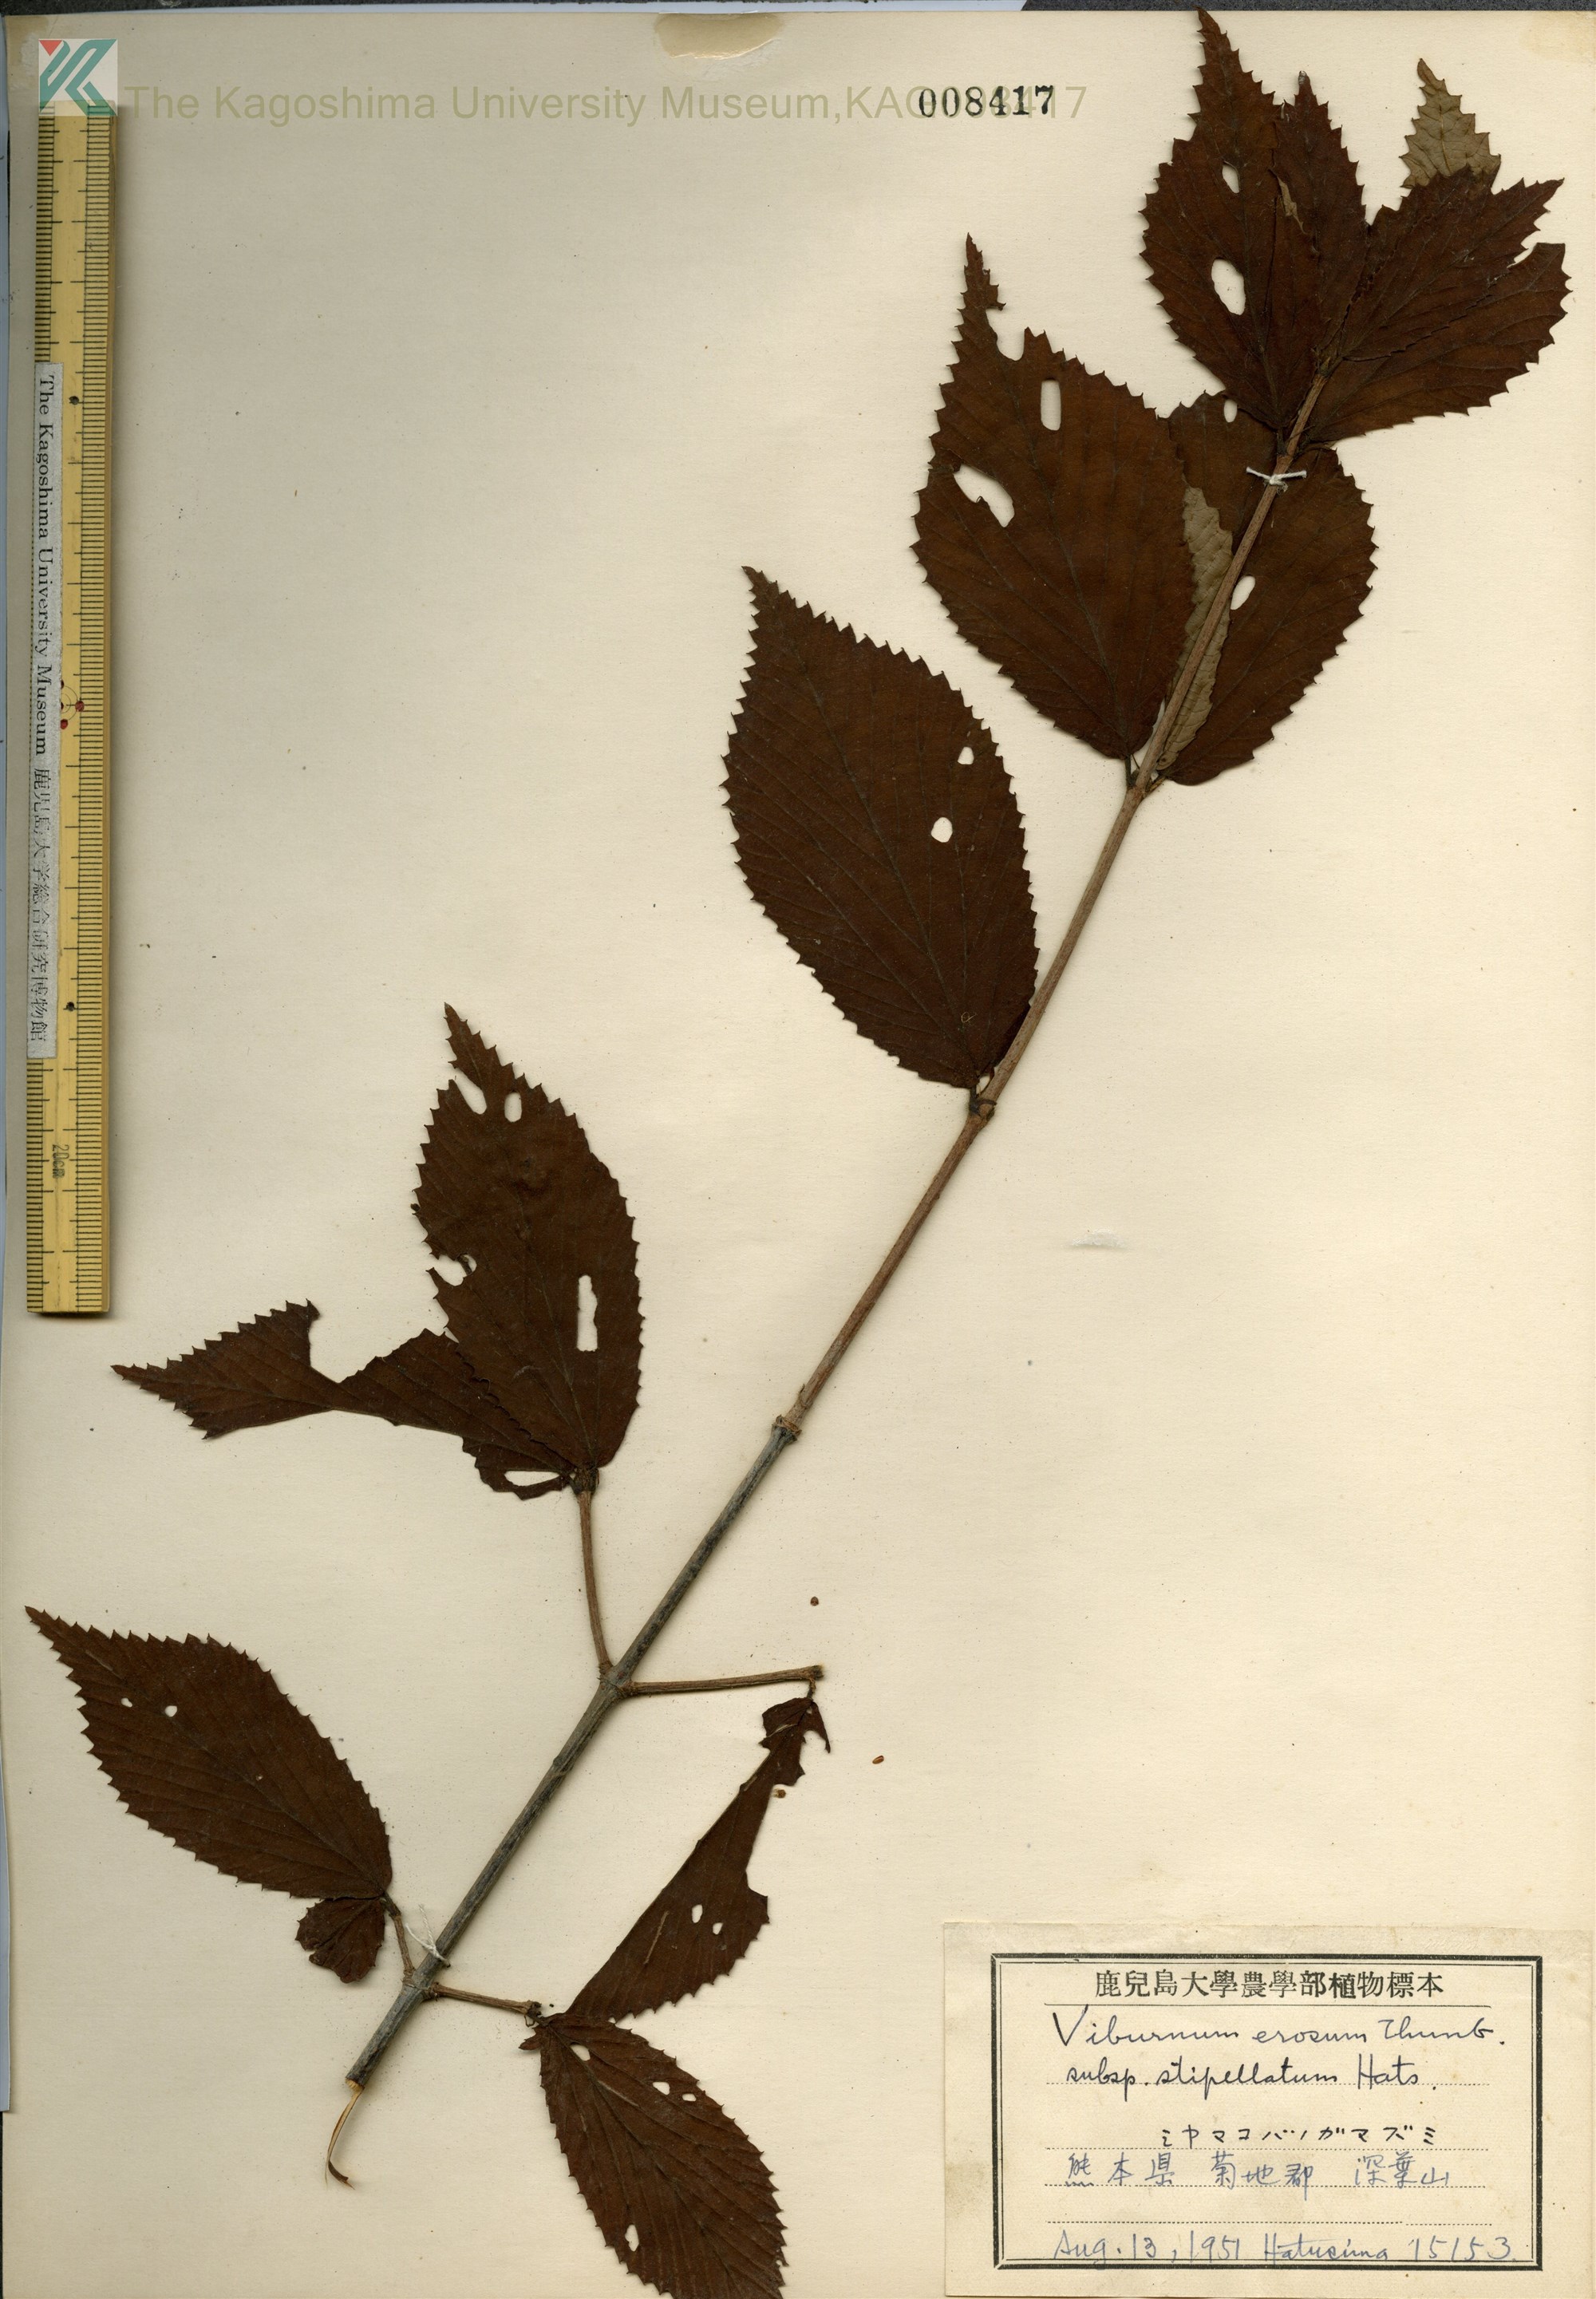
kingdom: Plantae
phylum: Tracheophyta
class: Magnoliopsida
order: Dipsacales
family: Viburnaceae
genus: Viburnum
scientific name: Viburnum erosum
